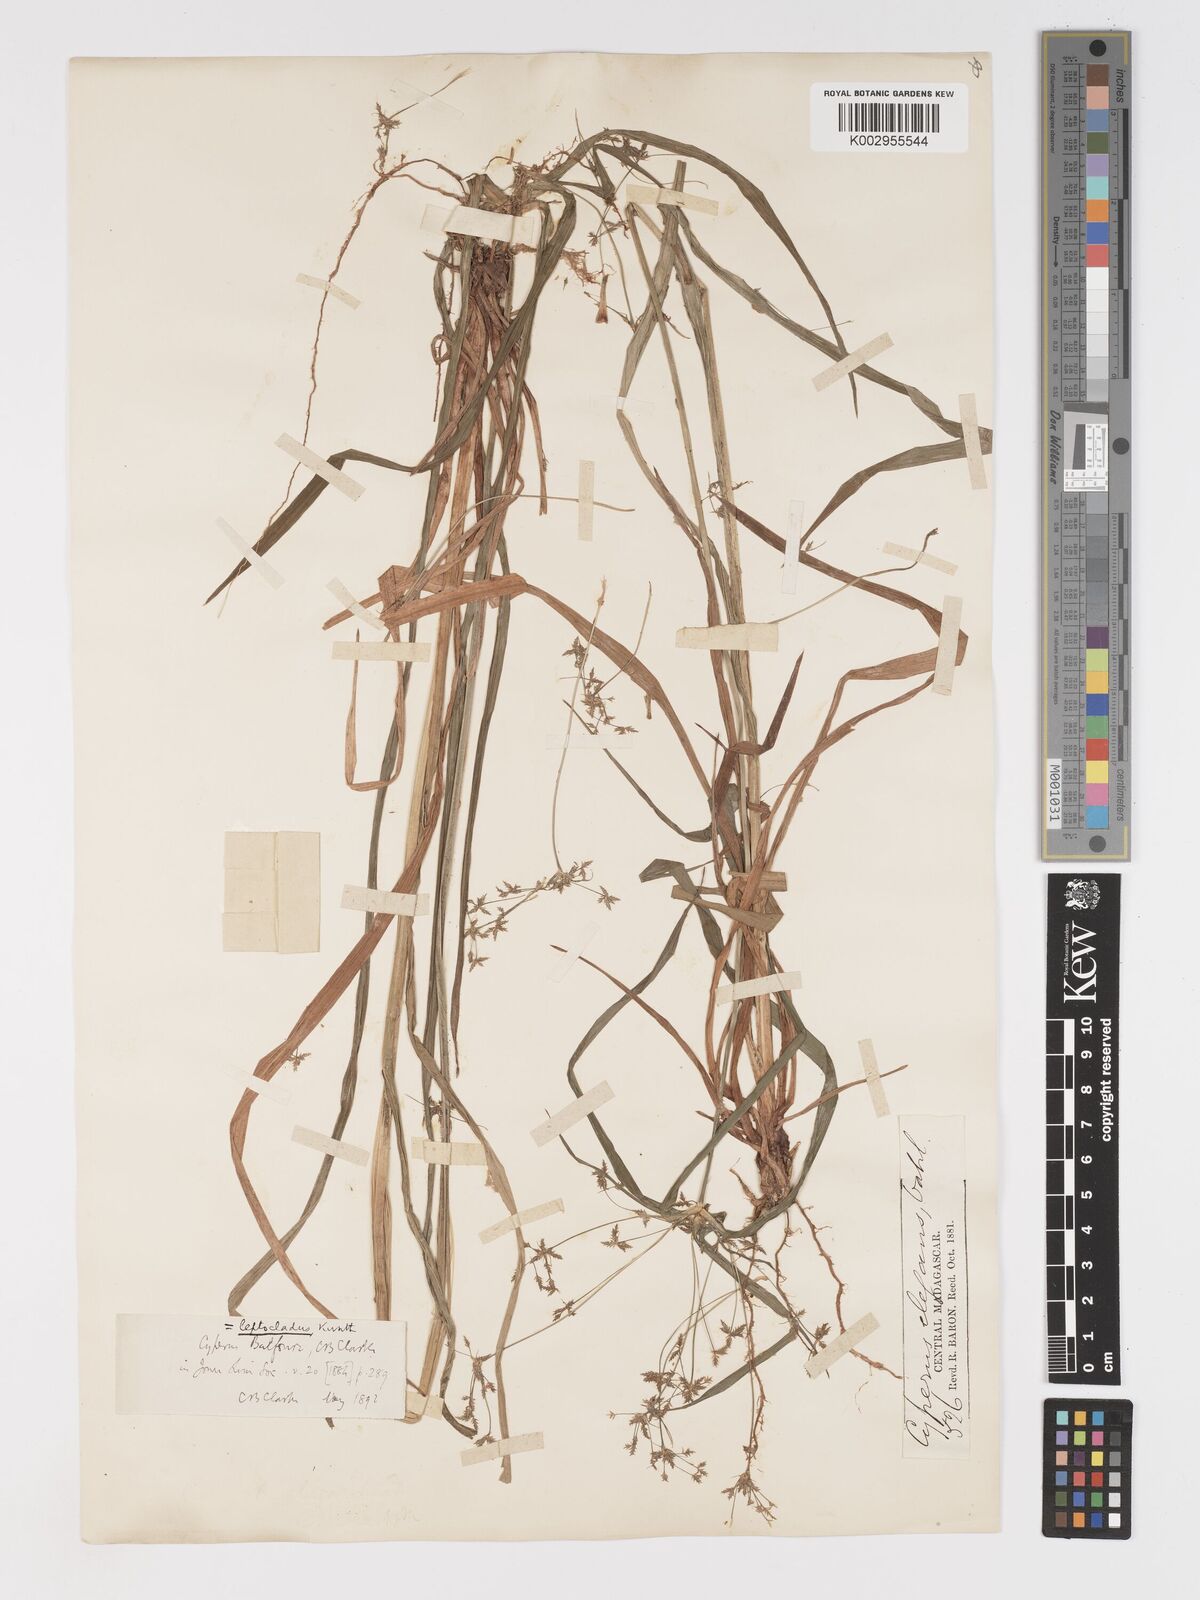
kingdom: Plantae
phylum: Tracheophyta
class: Liliopsida
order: Poales
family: Cyperaceae
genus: Cyperus
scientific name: Cyperus longifolius
